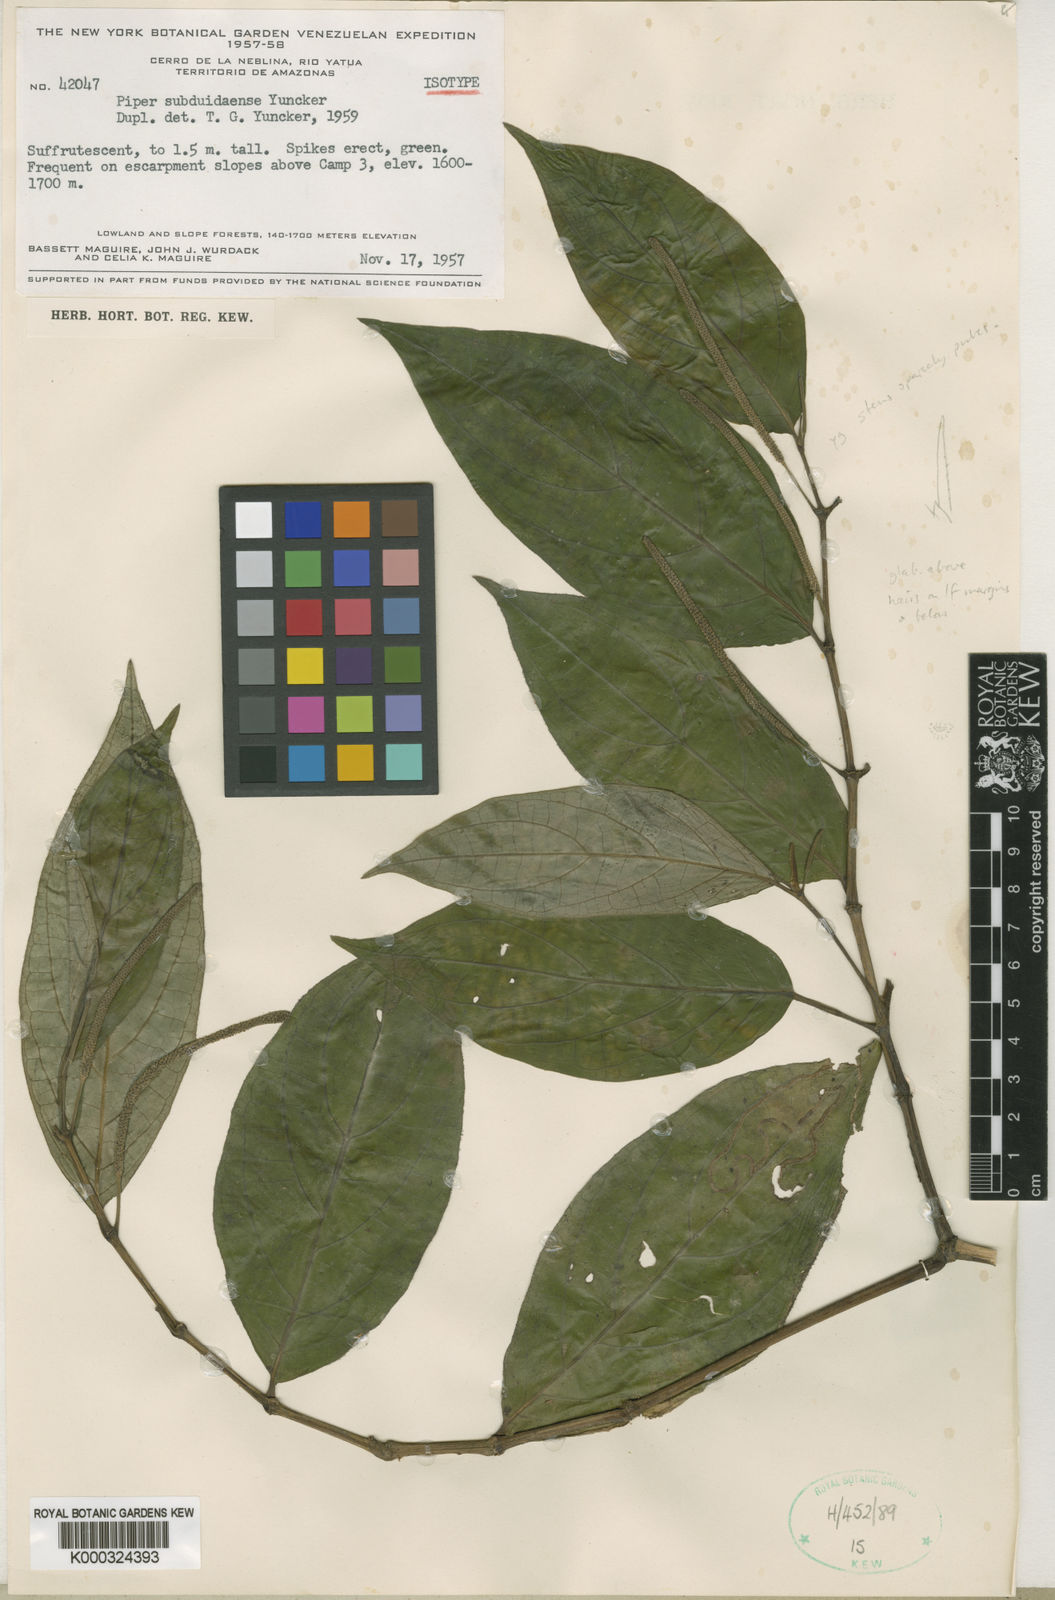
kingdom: Plantae
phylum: Tracheophyta
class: Magnoliopsida
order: Piperales
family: Piperaceae
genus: Piper
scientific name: Piper subduidaense
